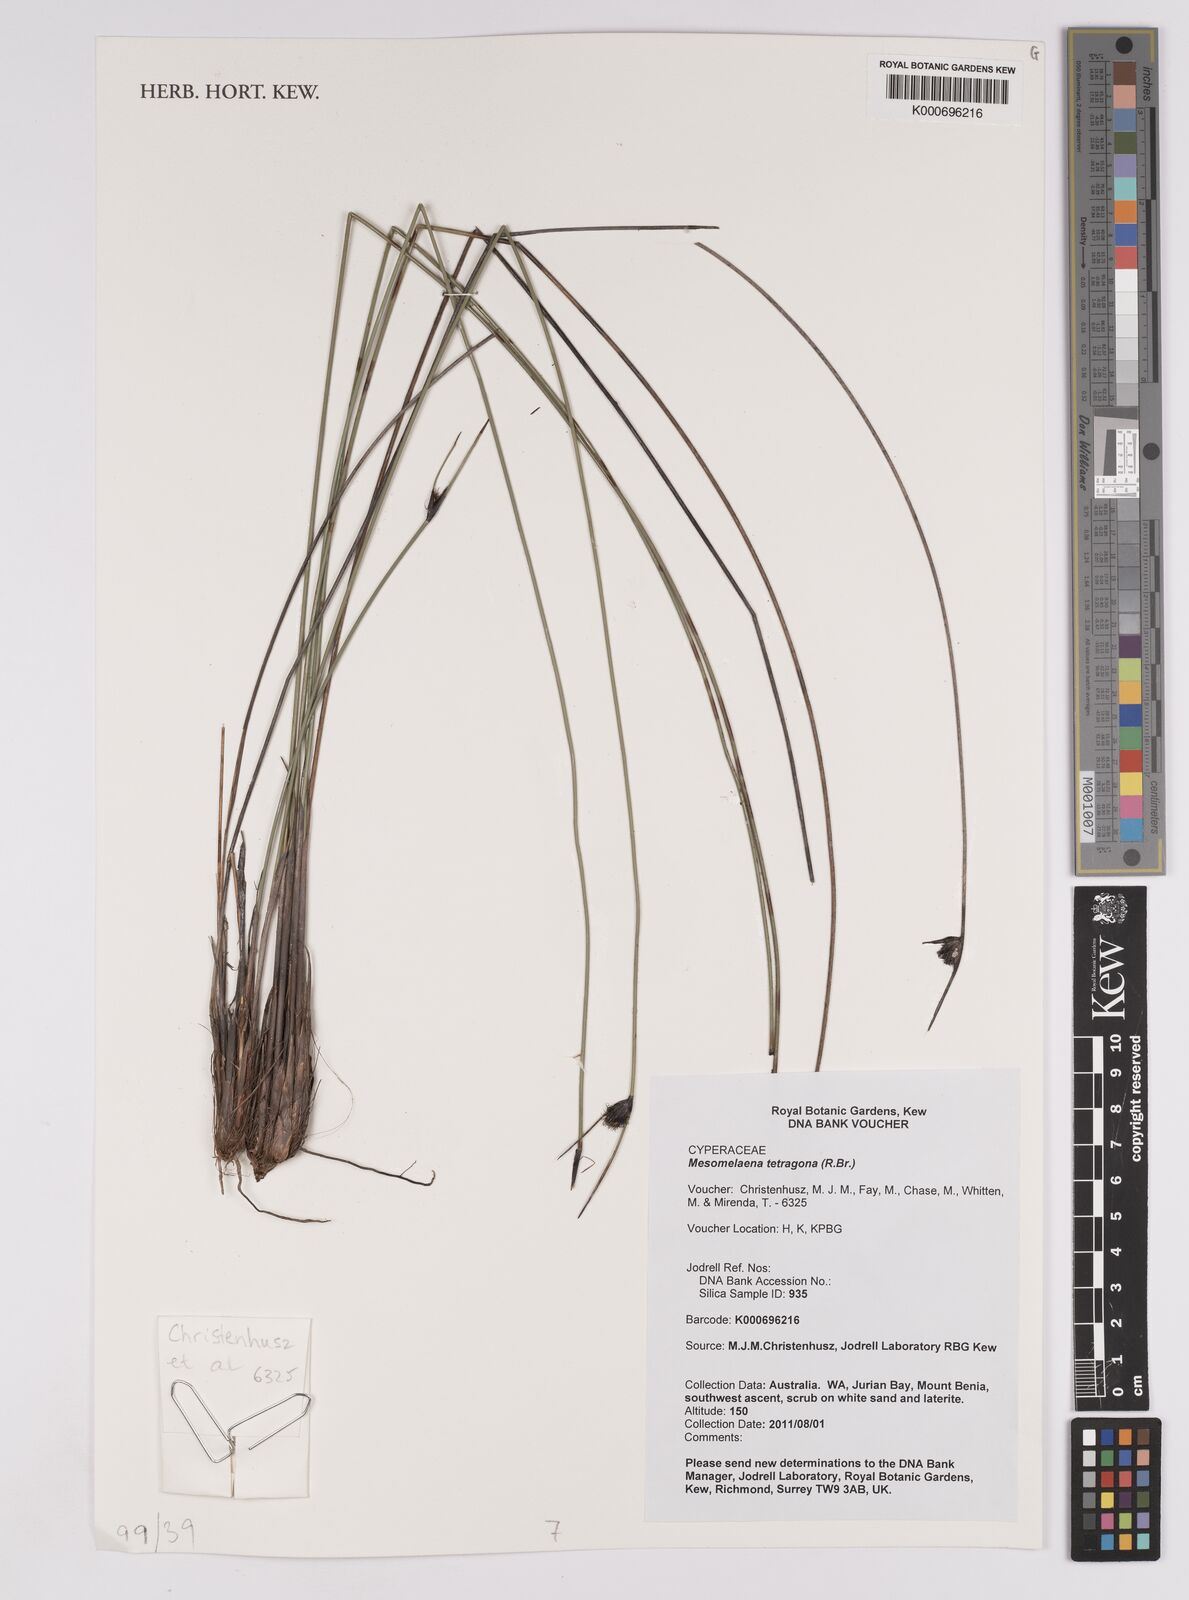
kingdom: Plantae
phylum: Tracheophyta
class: Liliopsida
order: Poales
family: Cyperaceae
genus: Mesomelaena
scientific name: Mesomelaena tetragona
